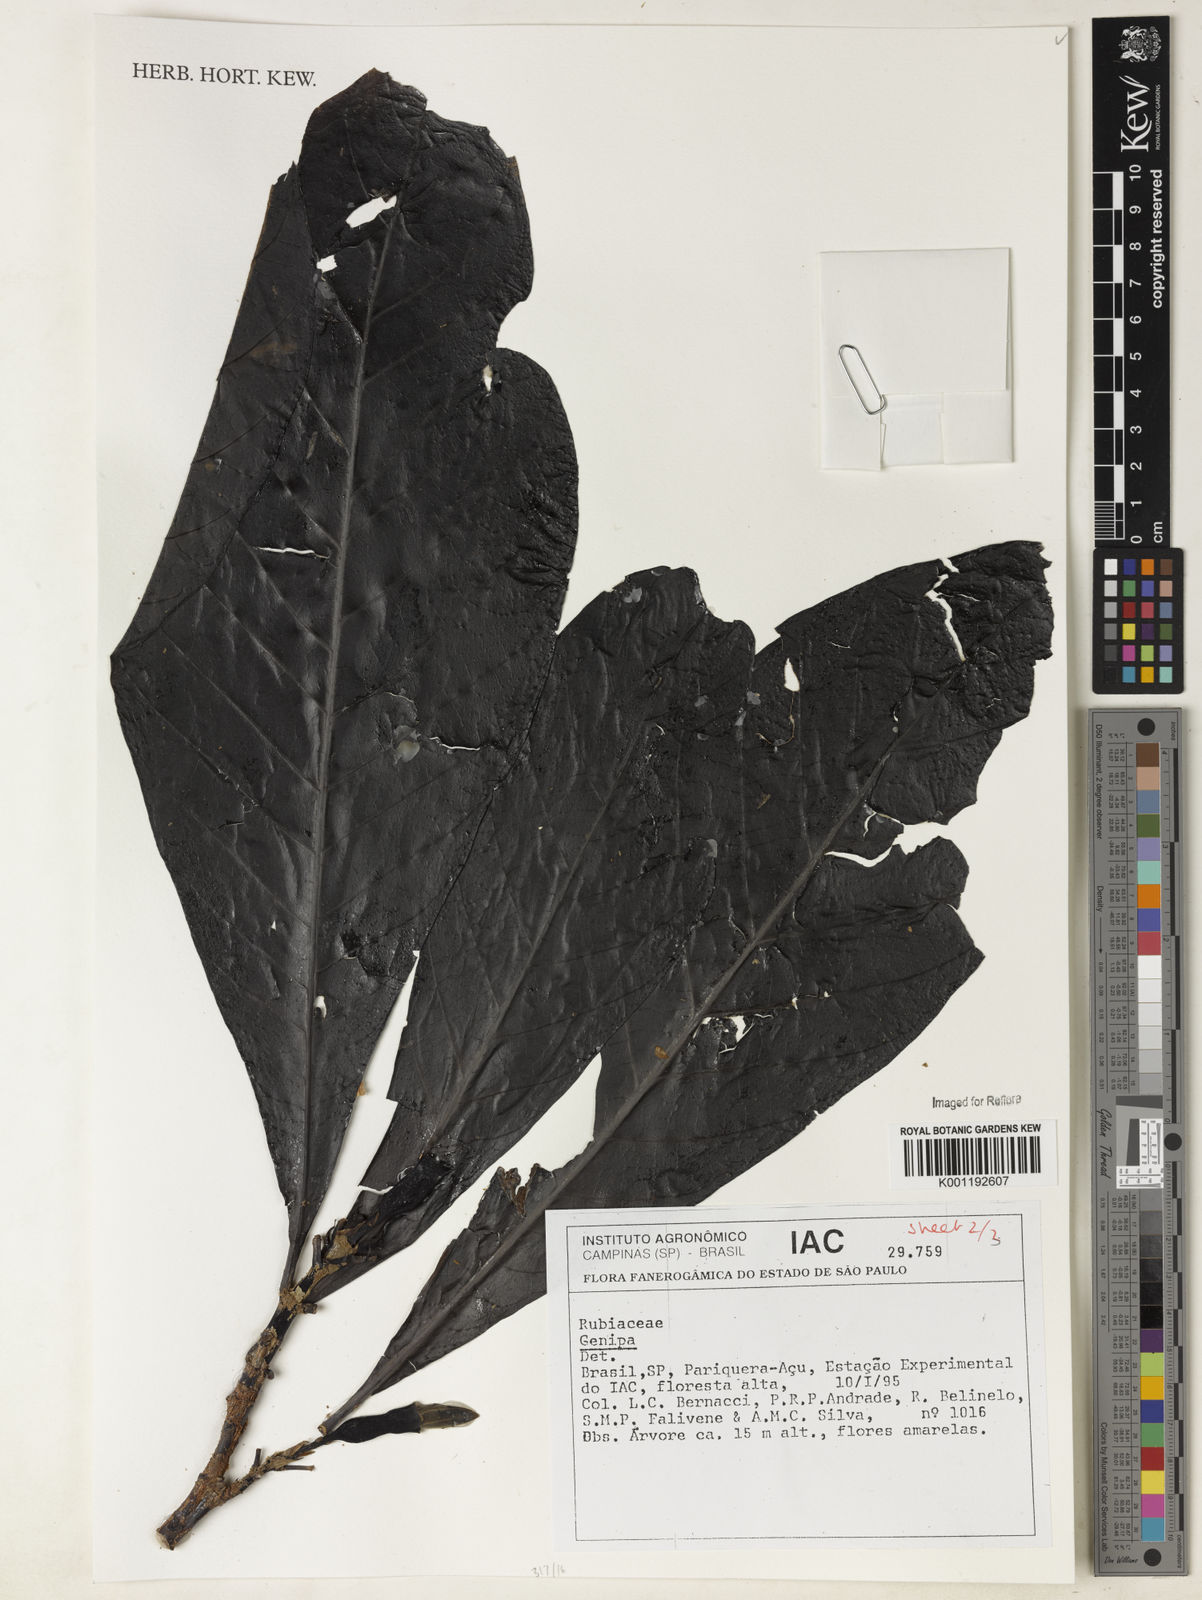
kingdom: Plantae
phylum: Tracheophyta
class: Magnoliopsida
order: Gentianales
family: Rubiaceae
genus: Genipa
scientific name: Genipa
